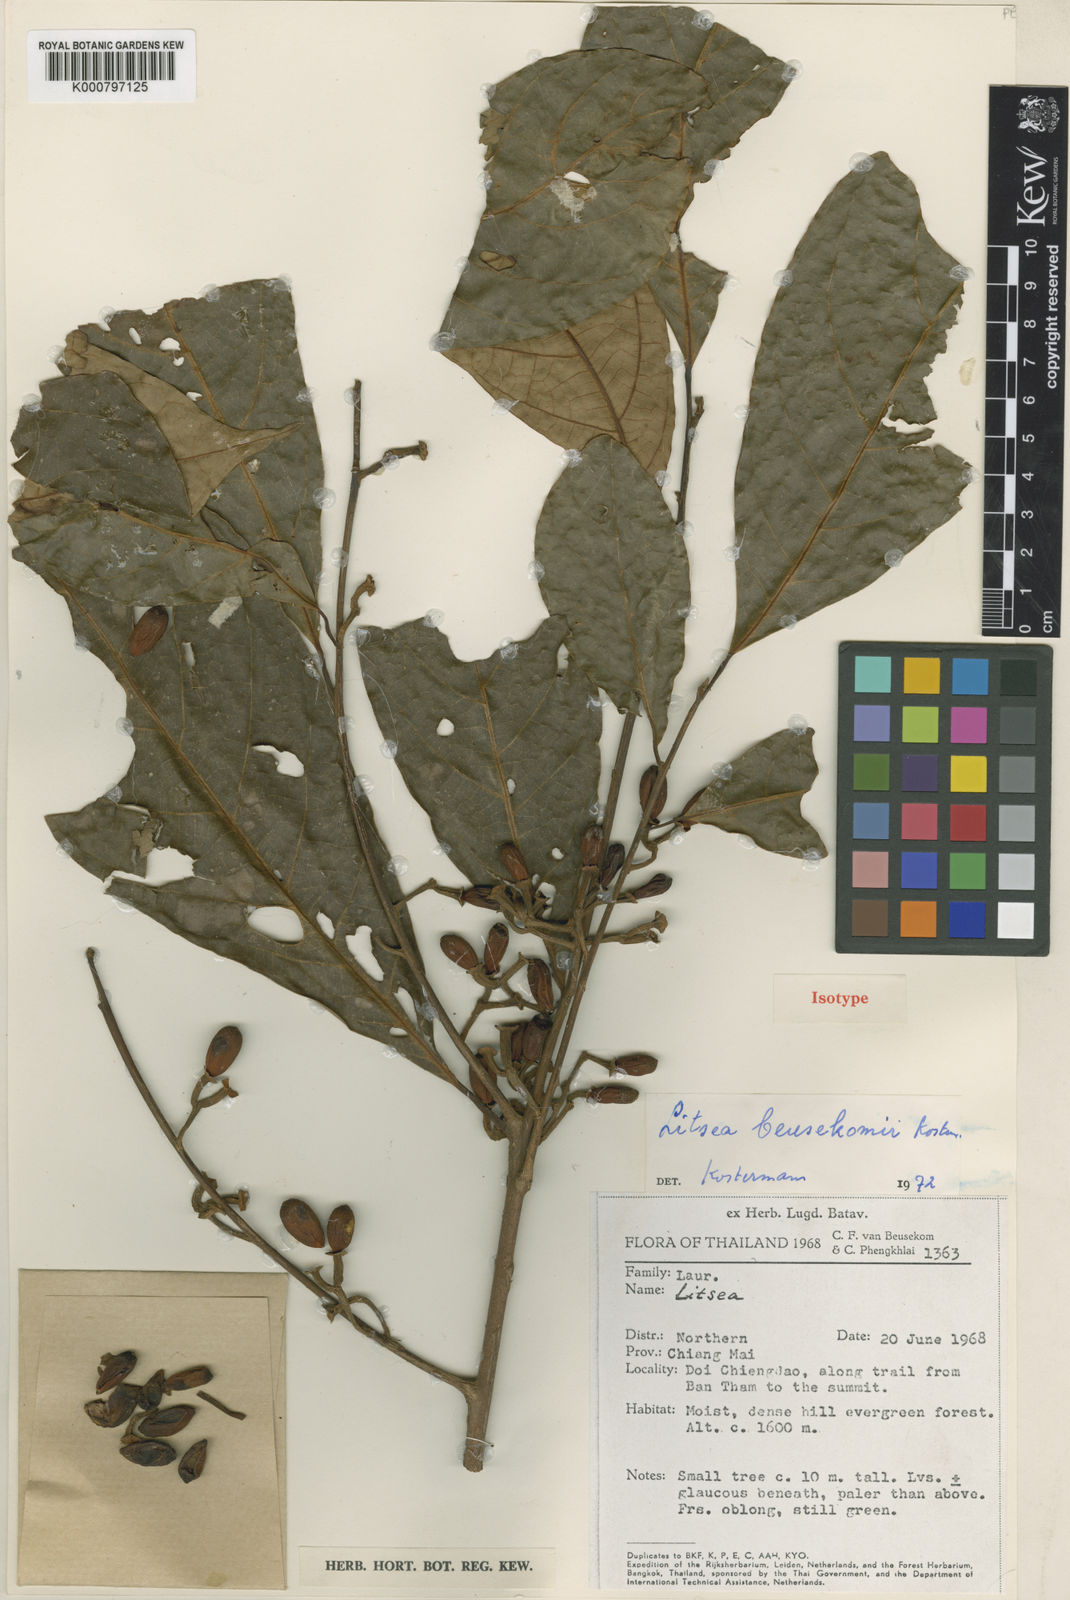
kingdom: Plantae
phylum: Tracheophyta
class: Magnoliopsida
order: Laurales
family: Lauraceae
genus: Litsea
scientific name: Litsea beusekomii
